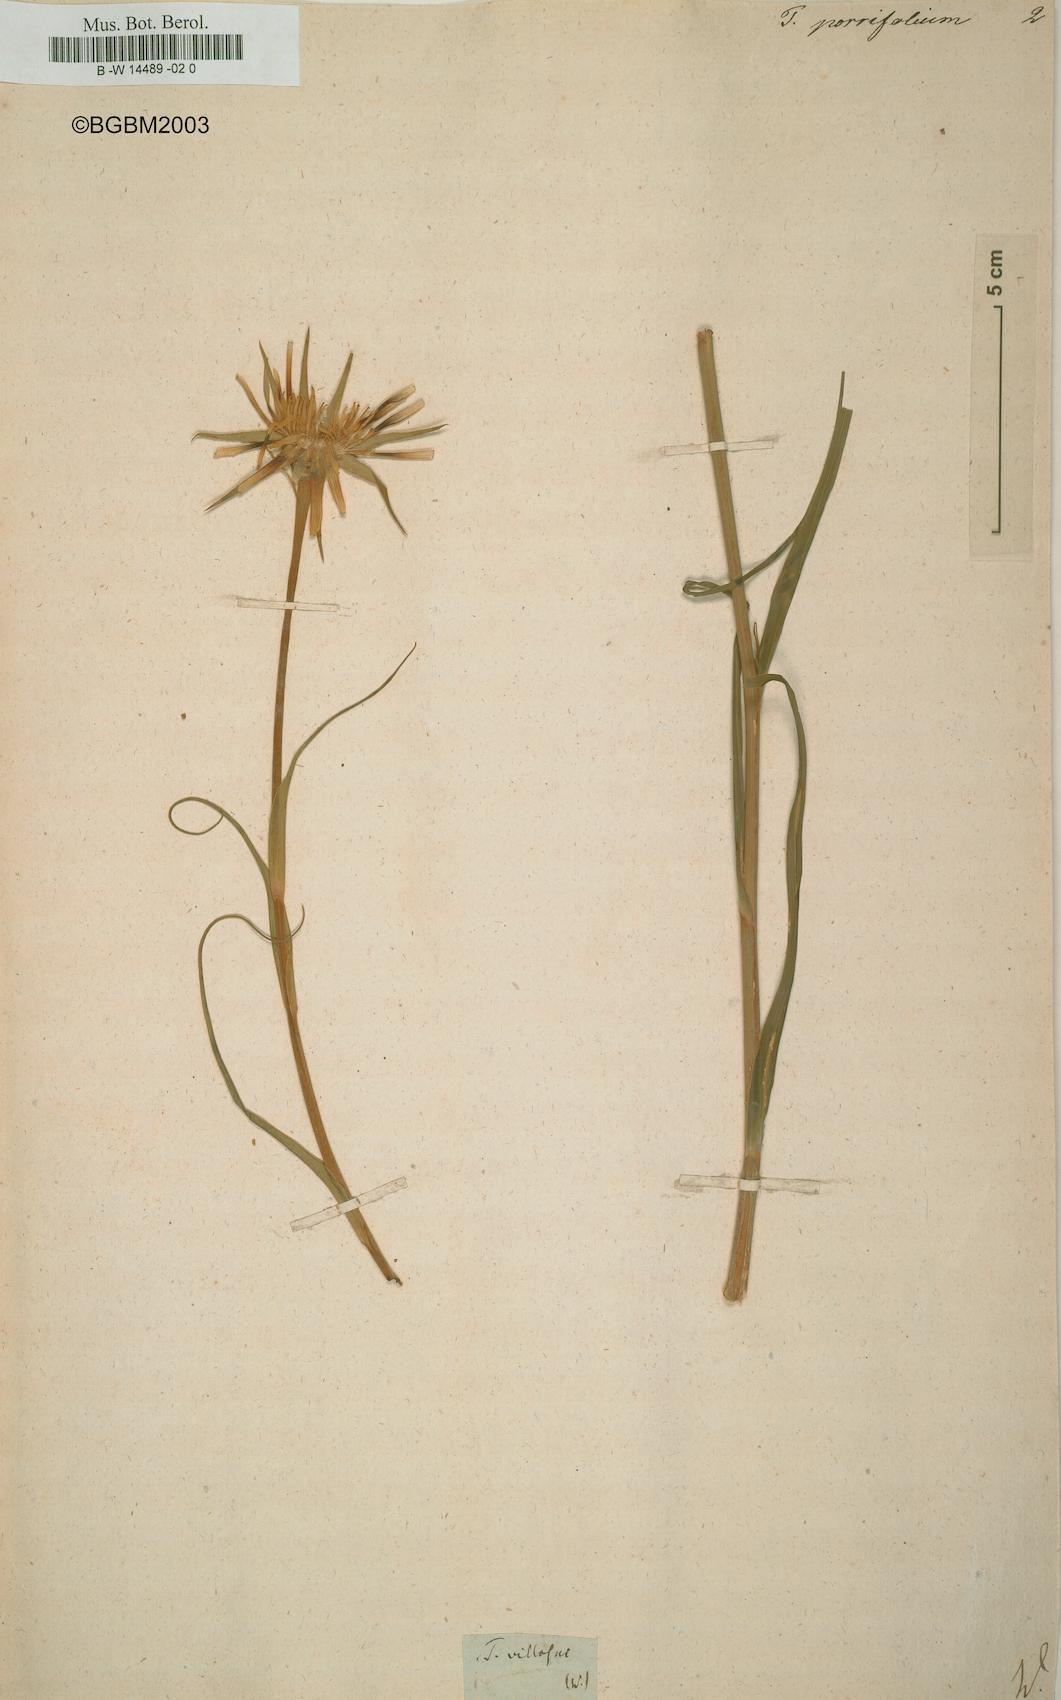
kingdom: Plantae
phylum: Tracheophyta
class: Magnoliopsida
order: Asterales
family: Asteraceae
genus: Tragopogon
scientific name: Tragopogon porrifolius
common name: Salsify
